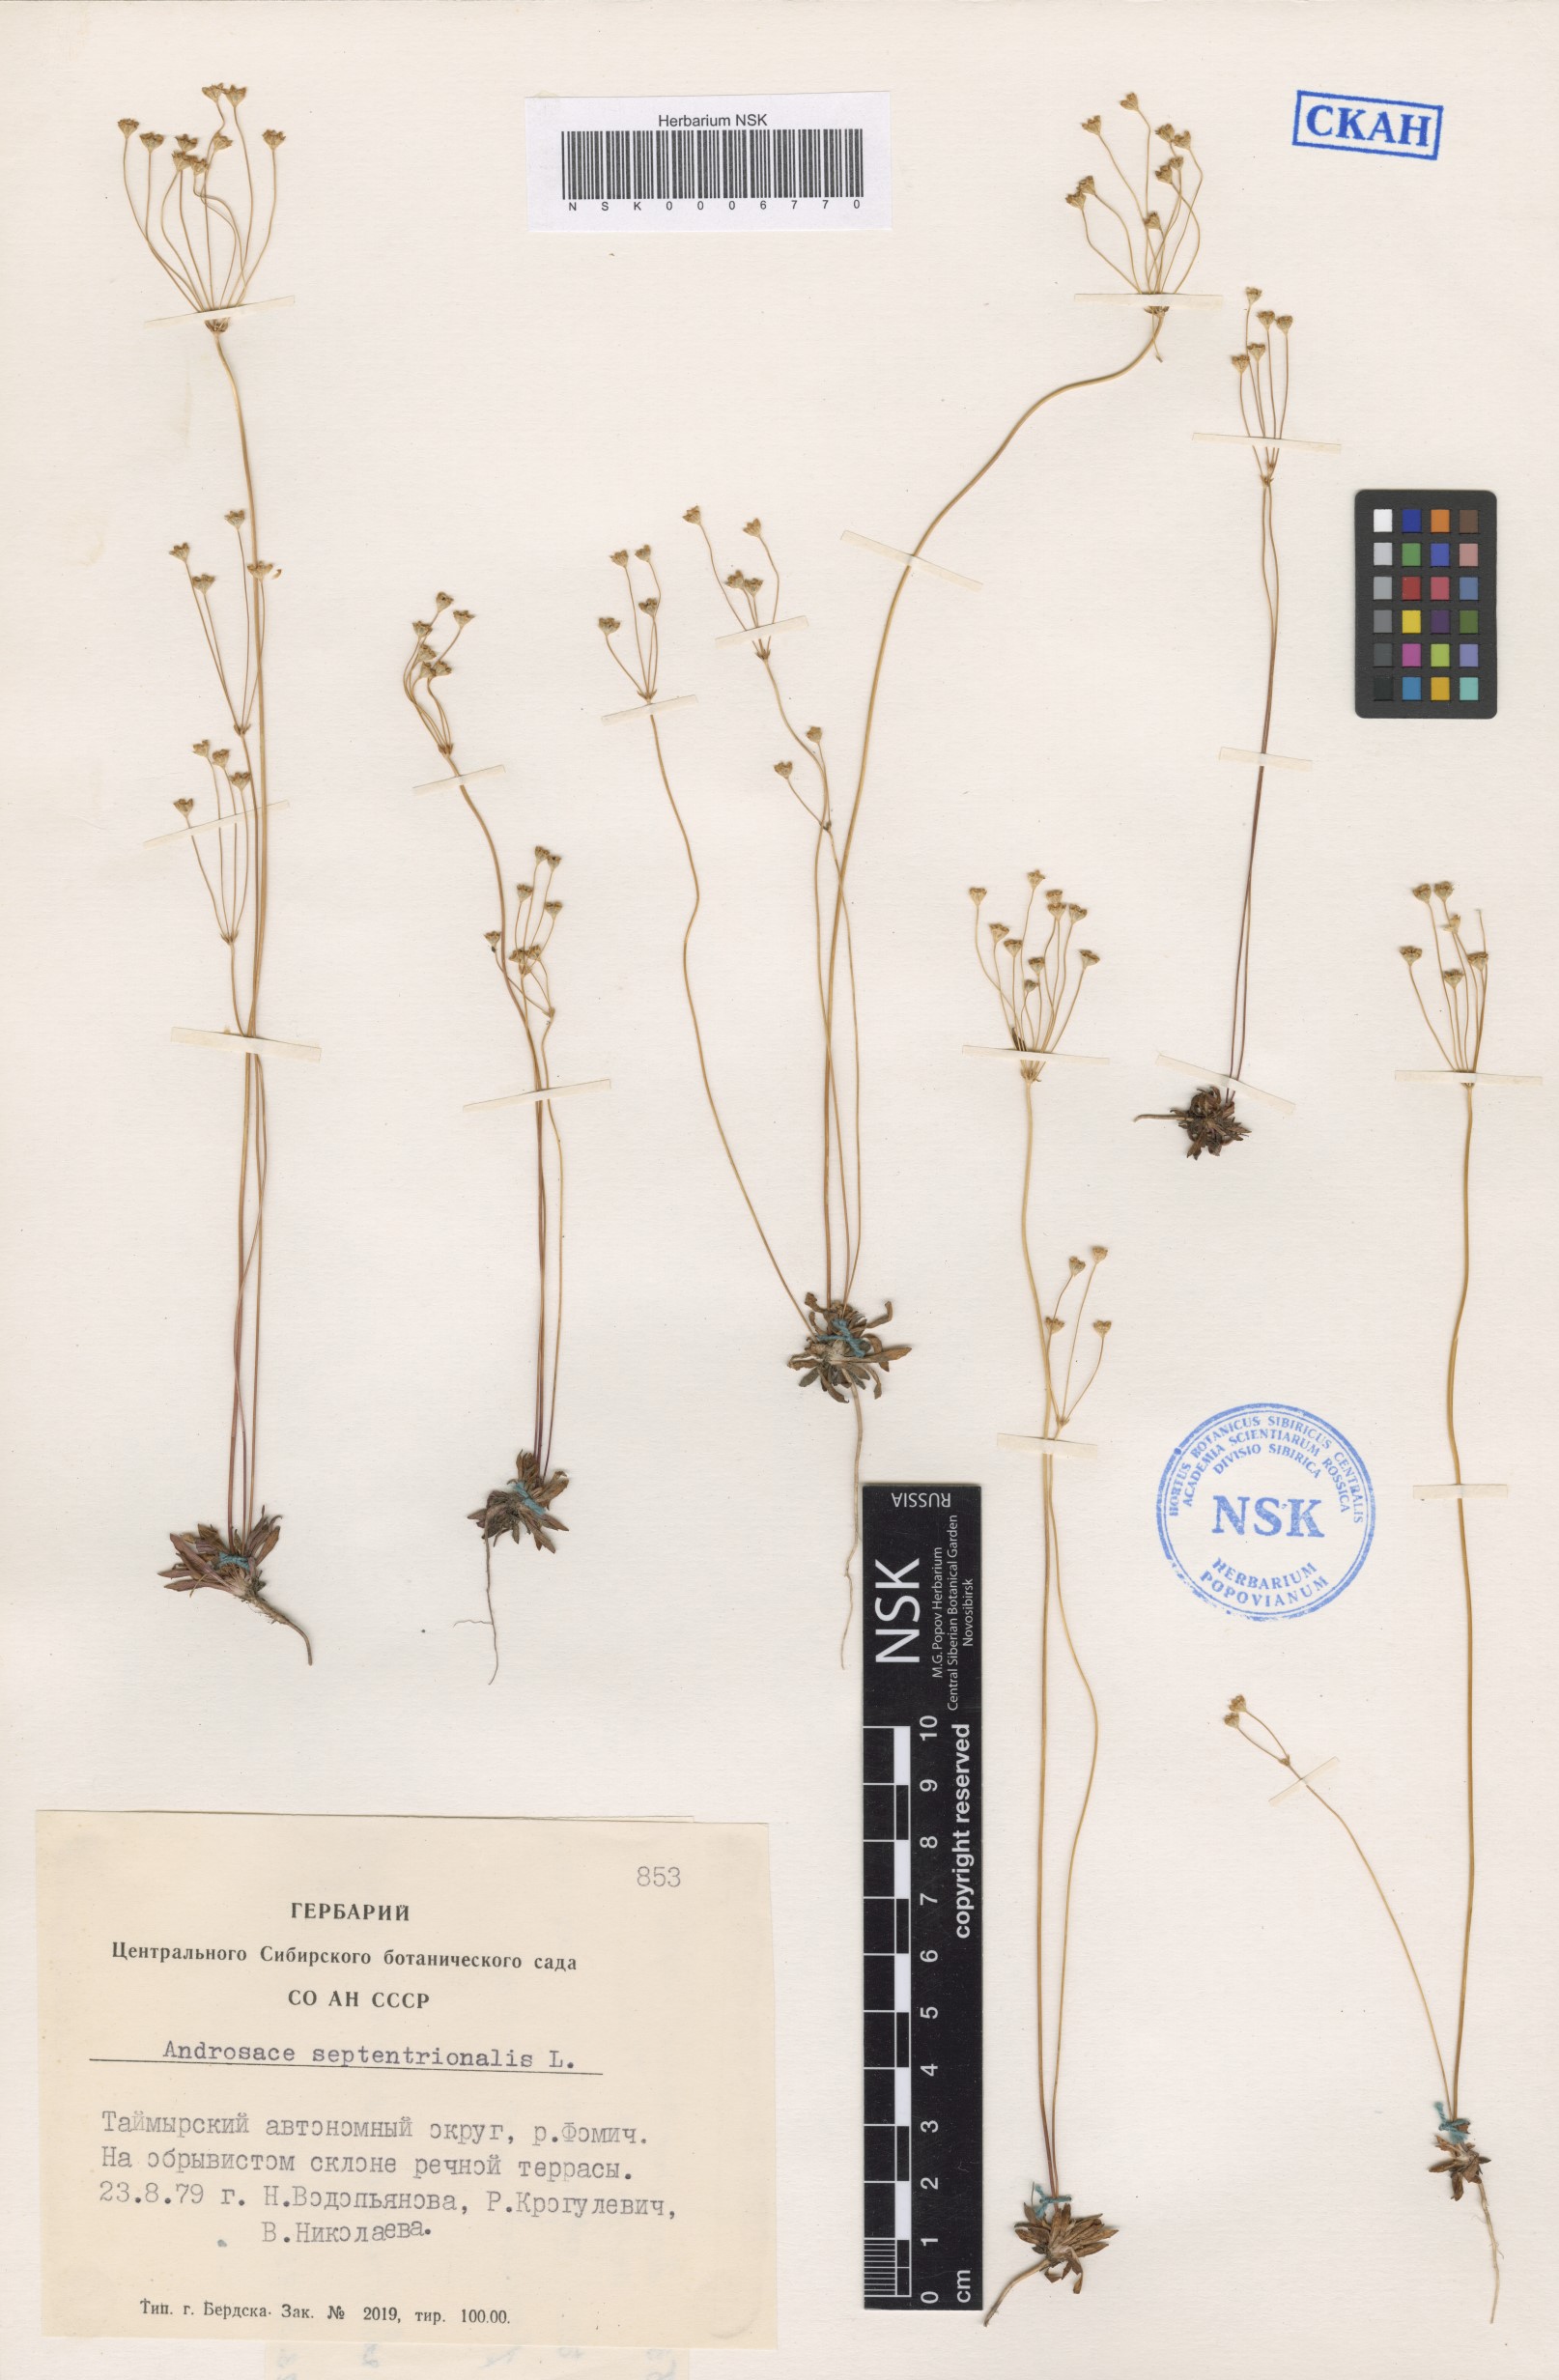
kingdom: Plantae
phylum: Tracheophyta
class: Magnoliopsida
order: Ericales
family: Primulaceae
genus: Androsace
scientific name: Androsace septentrionalis
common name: Hairy northern fairy-candelabra
